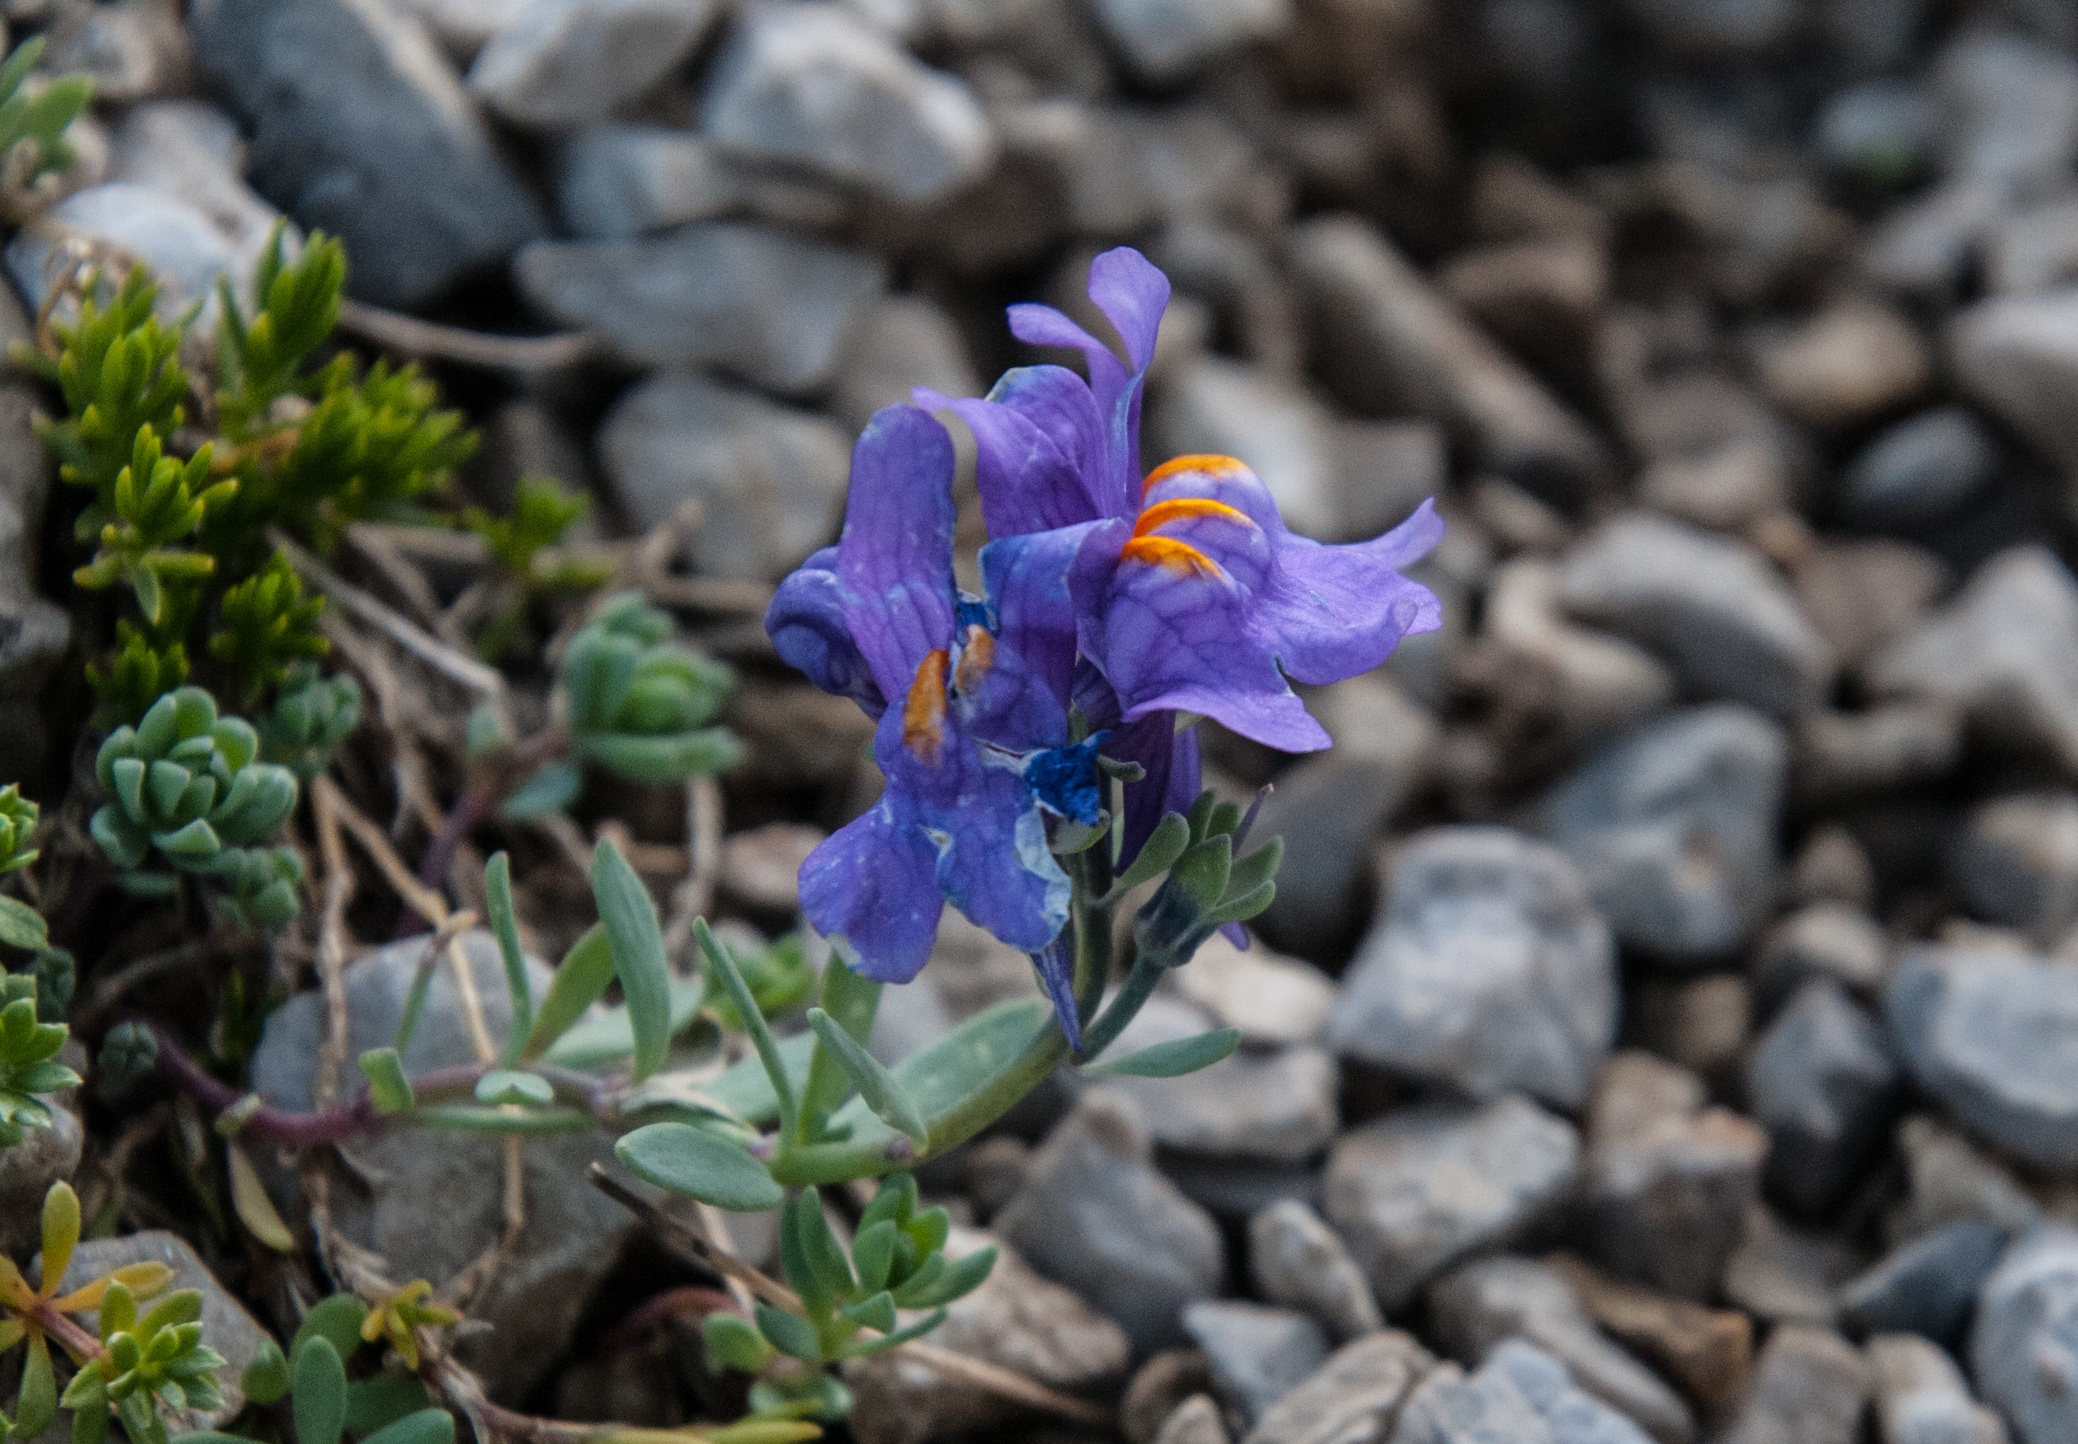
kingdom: Plantae
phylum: Tracheophyta
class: Magnoliopsida
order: Lamiales
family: Plantaginaceae
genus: Linaria
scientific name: Linaria alpina
